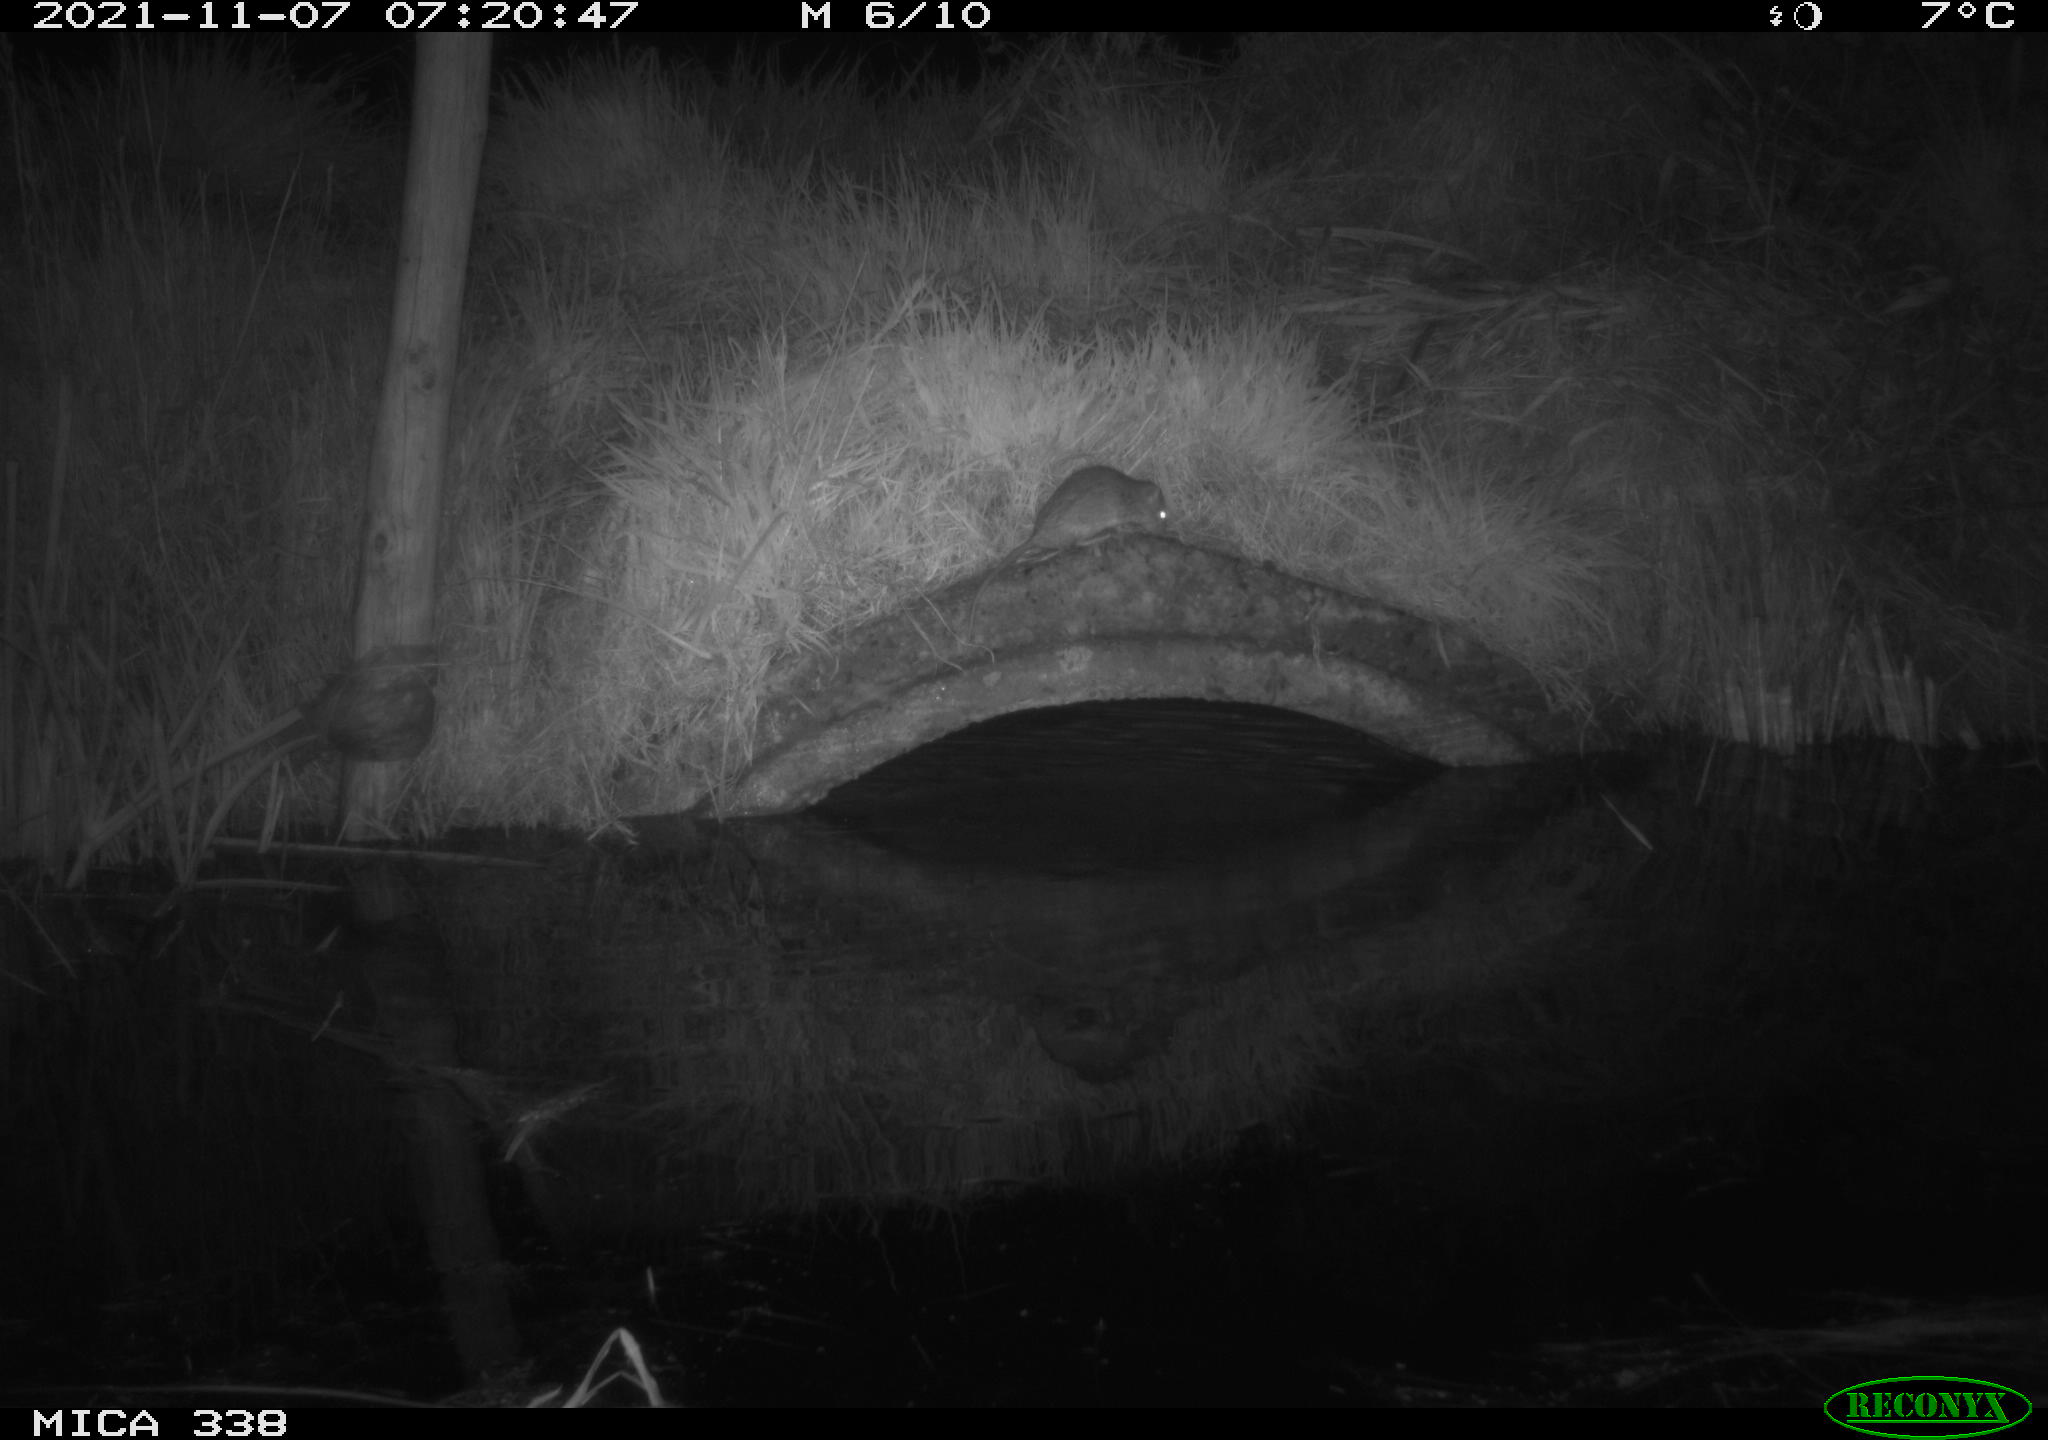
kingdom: Animalia
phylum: Chordata
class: Mammalia
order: Rodentia
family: Muridae
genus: Rattus
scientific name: Rattus norvegicus
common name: Brown rat
